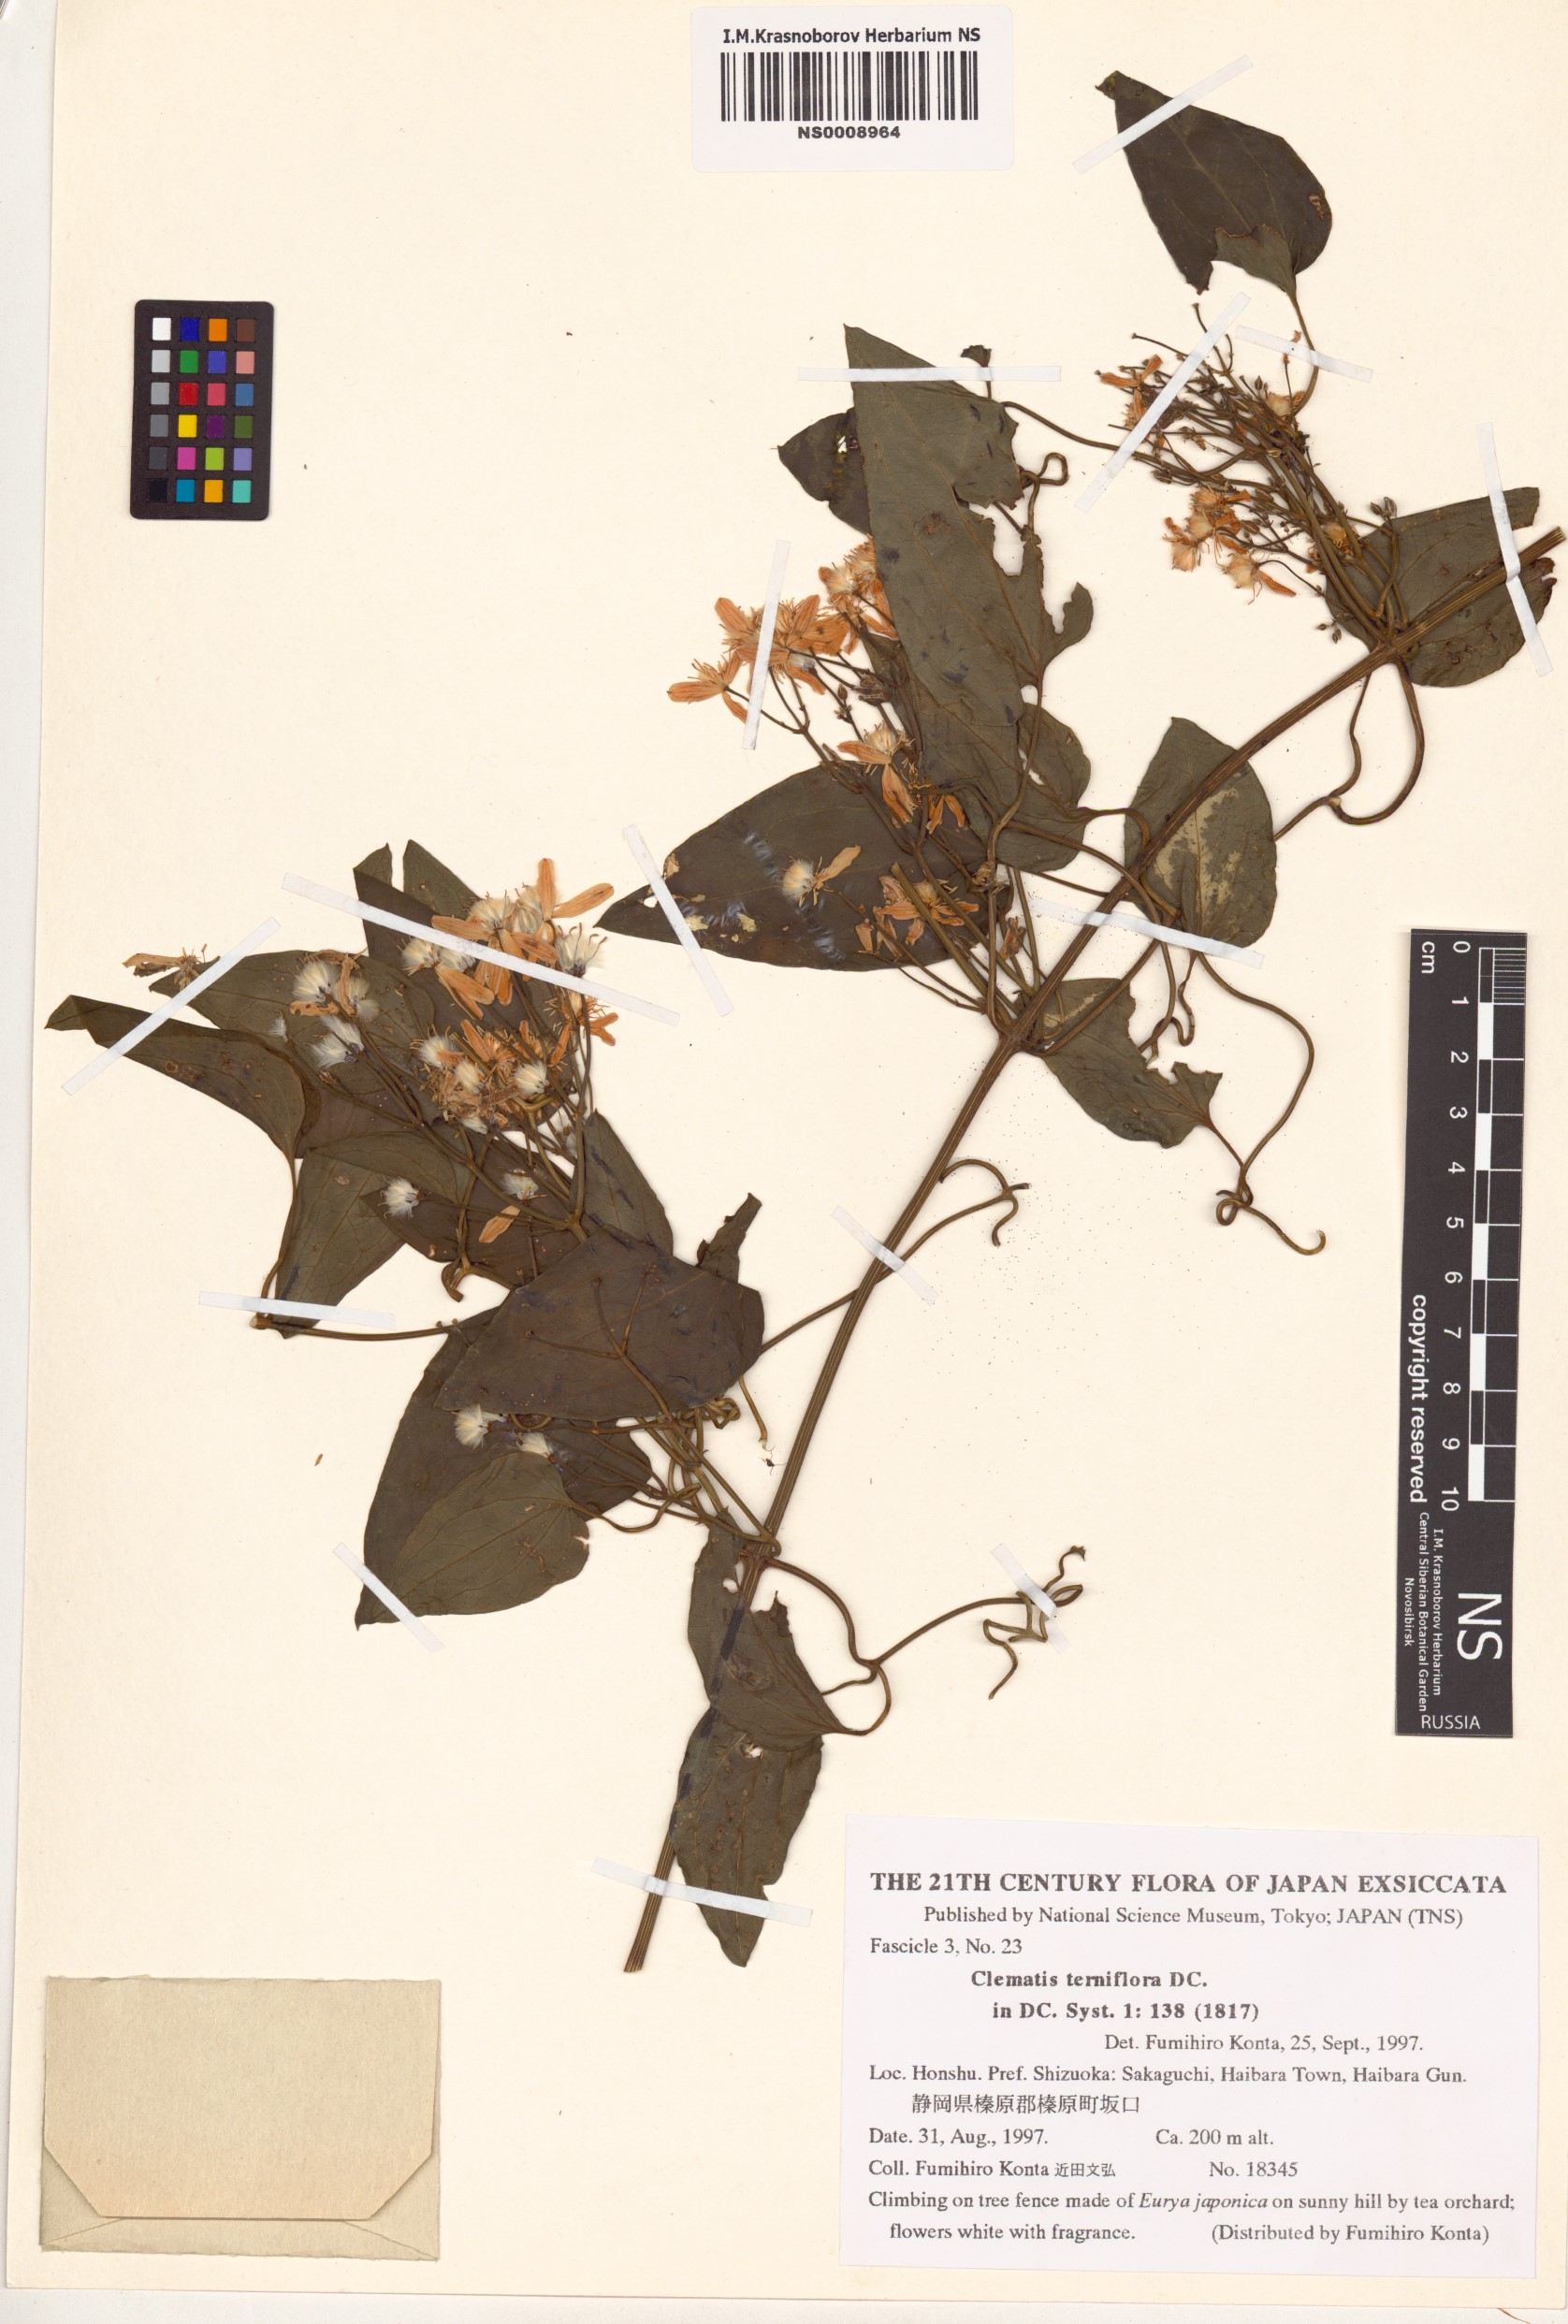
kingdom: Plantae
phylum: Tracheophyta
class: Magnoliopsida
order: Ranunculales
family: Ranunculaceae
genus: Clematis
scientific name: Clematis terniflora
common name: Sweet autumn clematis
